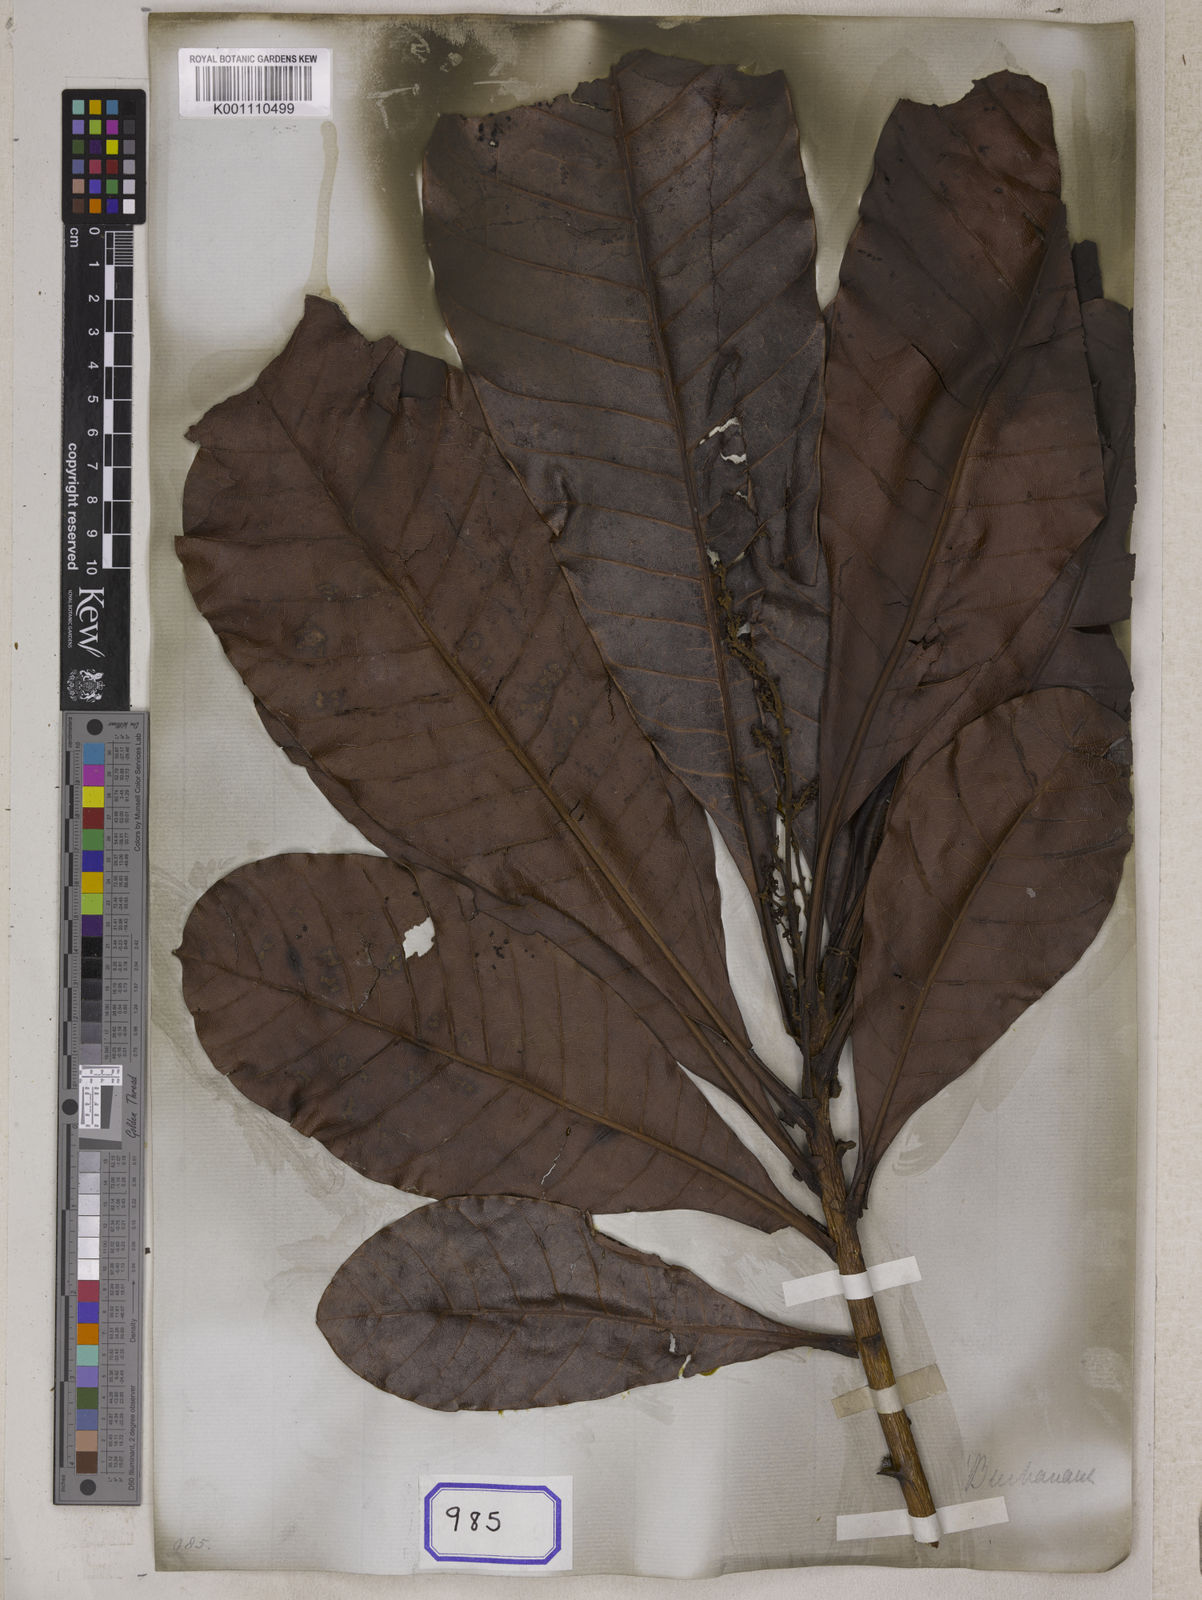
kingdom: Plantae
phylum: Tracheophyta
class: Magnoliopsida
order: Sapindales
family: Anacardiaceae
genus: Semecarpus
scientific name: Semecarpus
